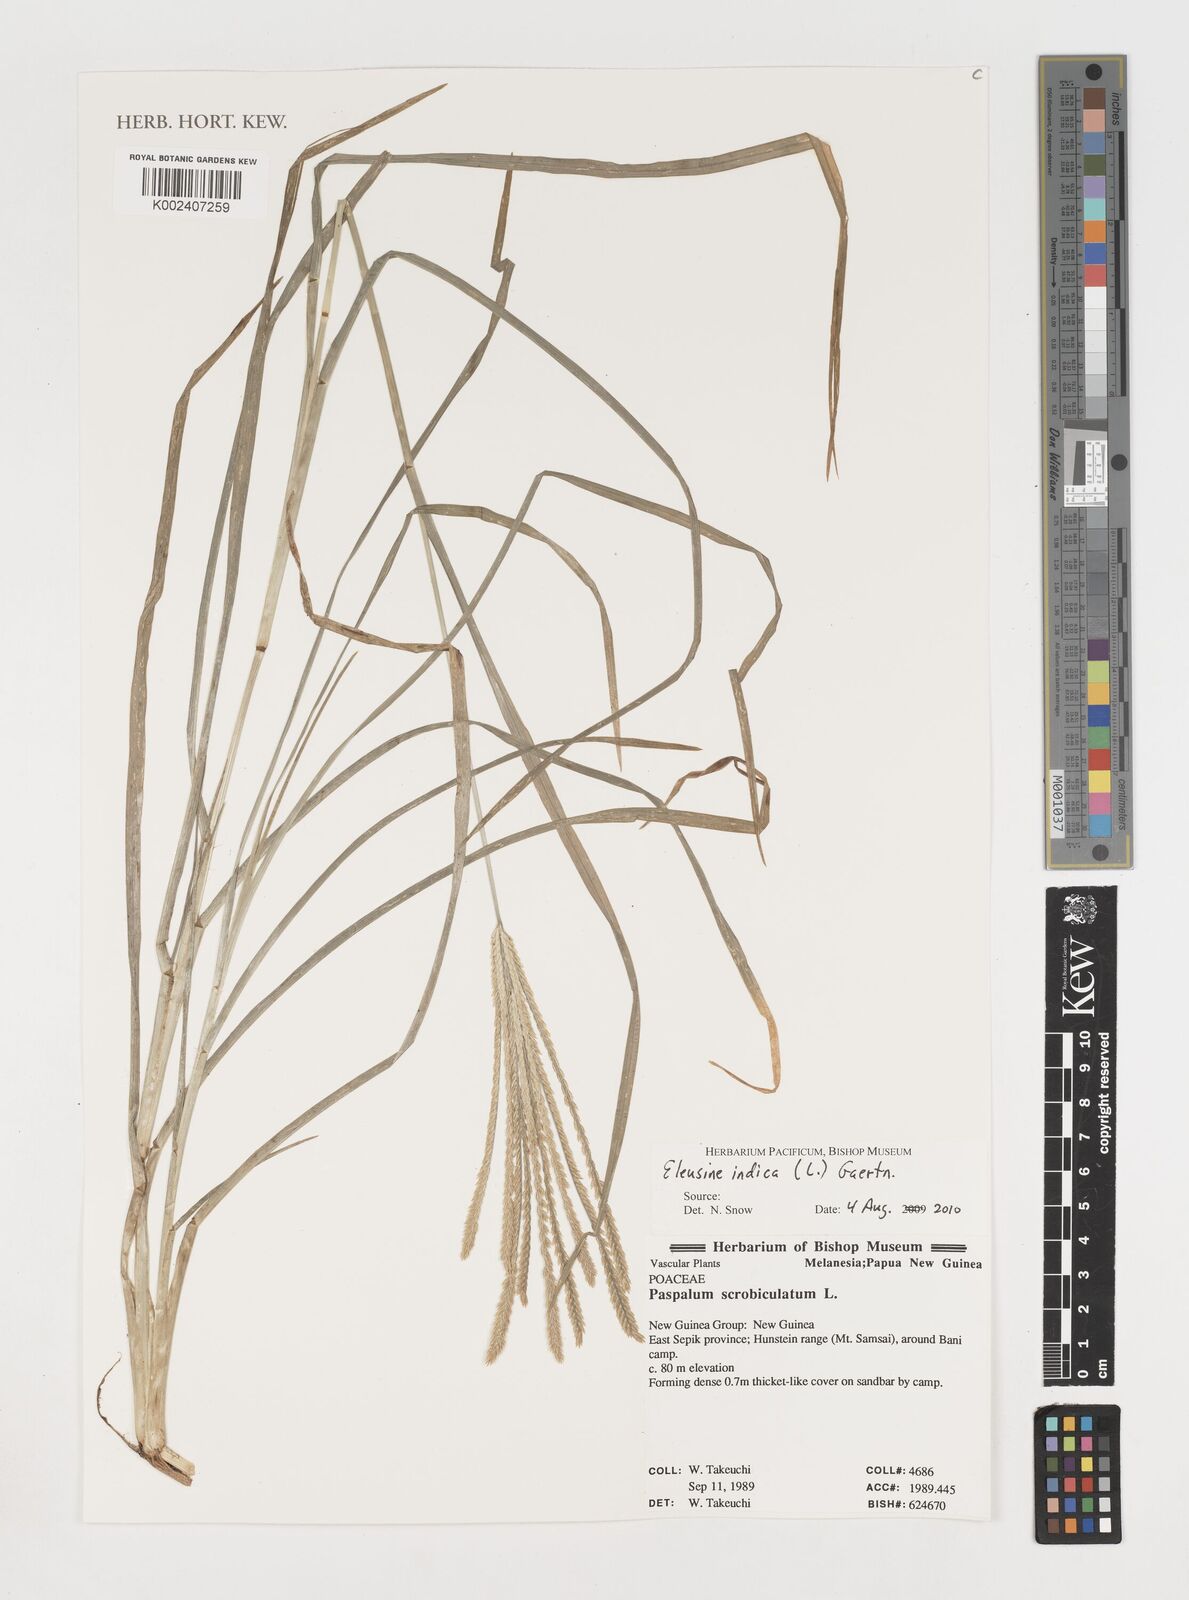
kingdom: Plantae
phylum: Tracheophyta
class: Liliopsida
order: Poales
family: Poaceae
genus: Eleusine
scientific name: Eleusine indica
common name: Yard-grass
